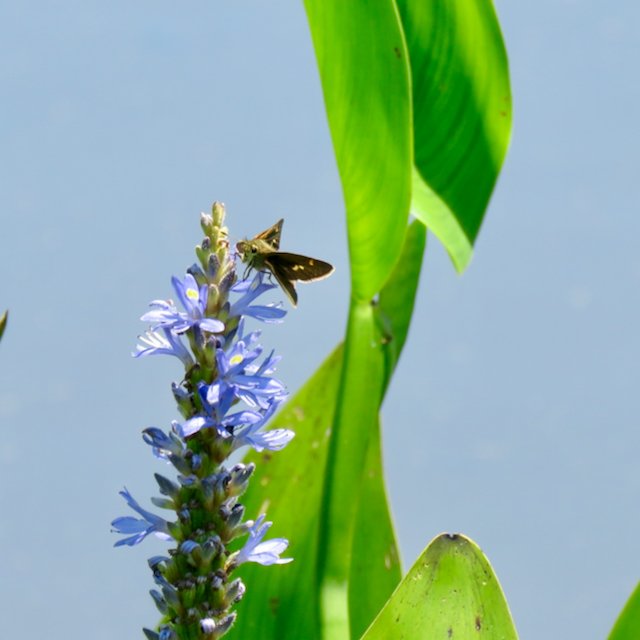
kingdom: Animalia
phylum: Arthropoda
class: Insecta
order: Lepidoptera
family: Hesperiidae
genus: Vernia
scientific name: Vernia verna
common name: Little Glassywing
